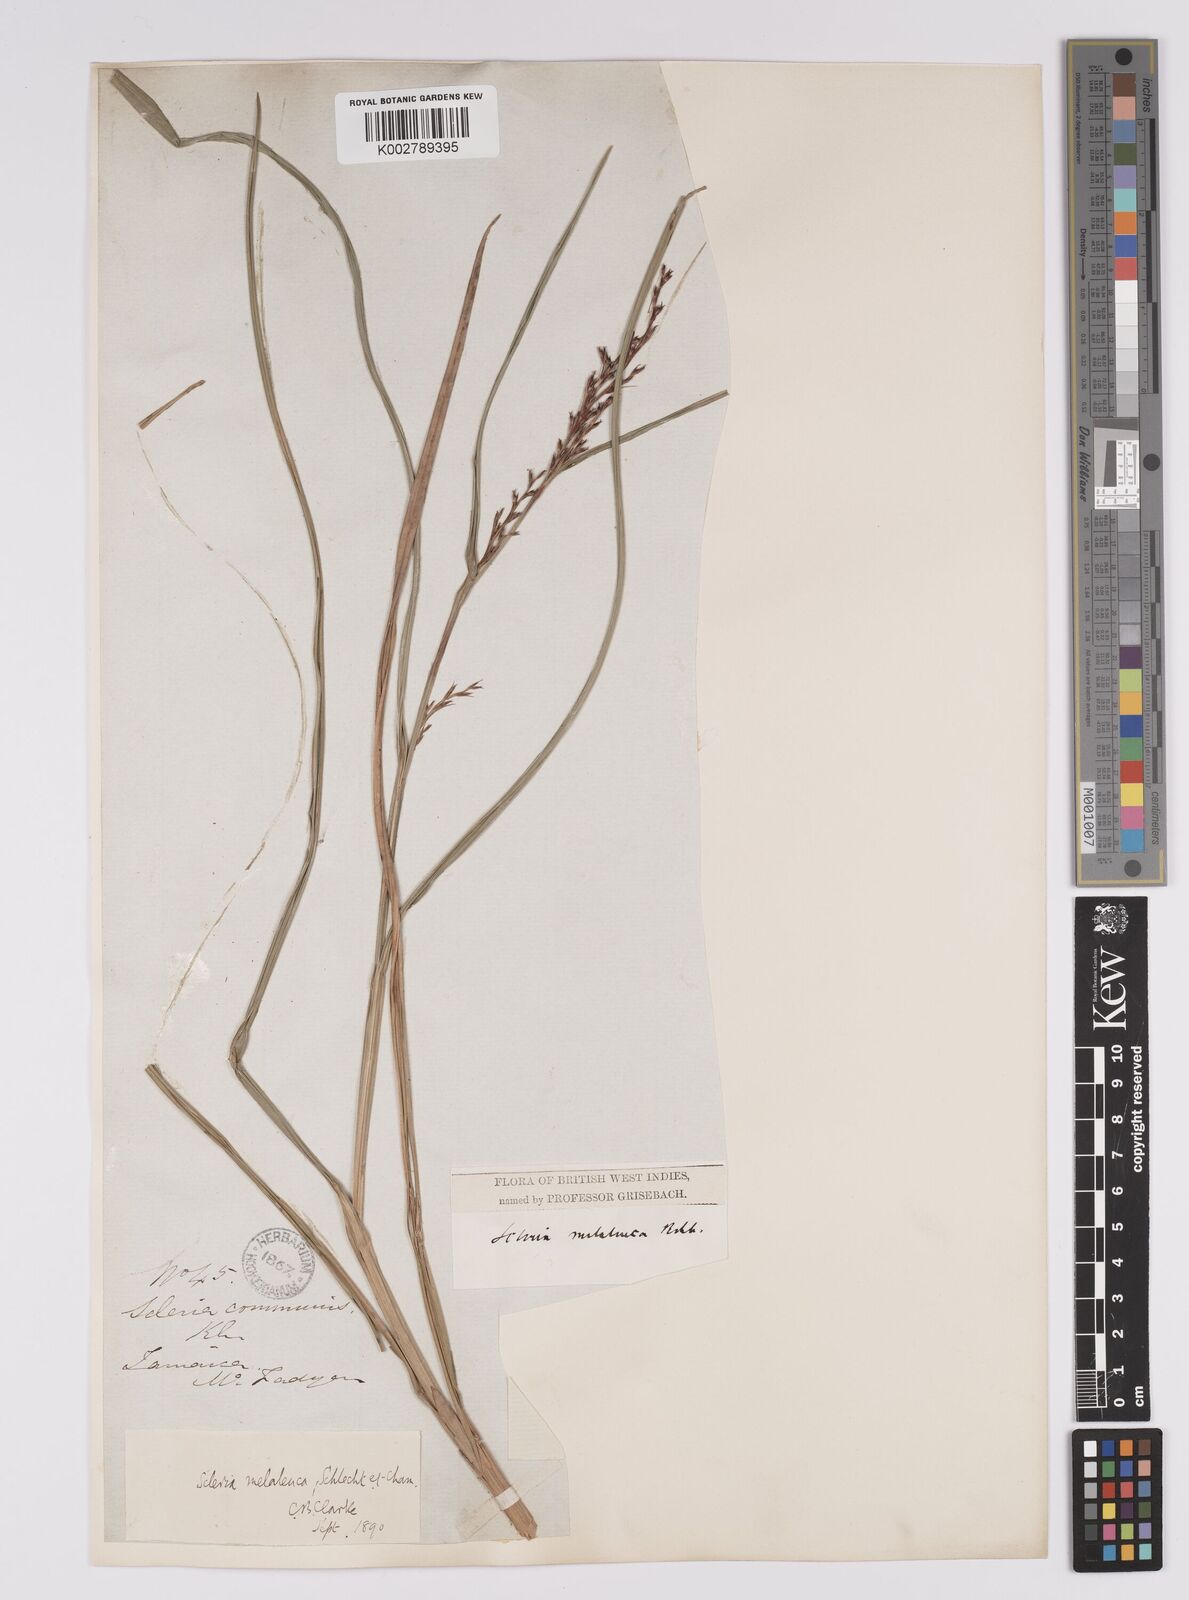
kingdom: Plantae
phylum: Tracheophyta
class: Liliopsida
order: Poales
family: Cyperaceae
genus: Scleria
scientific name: Scleria gaertneri
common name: Cortadera blanca
